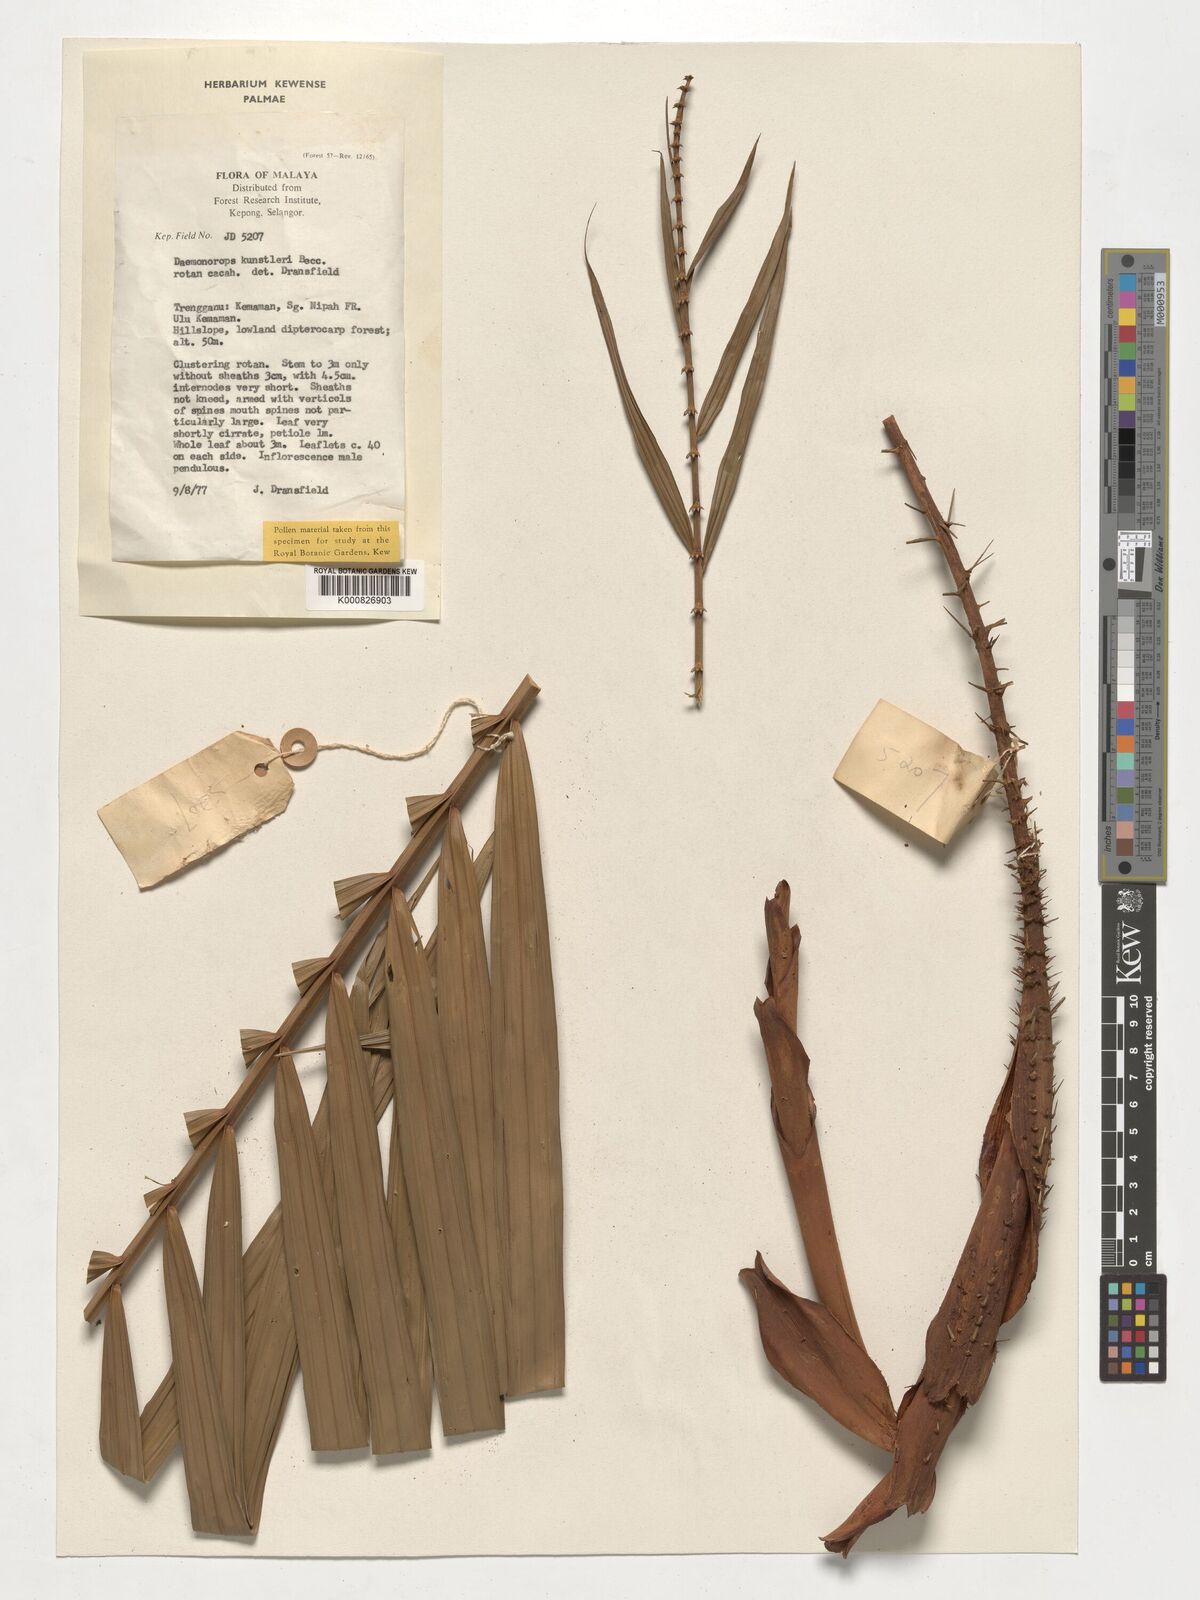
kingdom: Plantae
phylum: Tracheophyta
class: Liliopsida
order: Arecales
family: Arecaceae
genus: Calamus
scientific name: Calamus kunstleri
